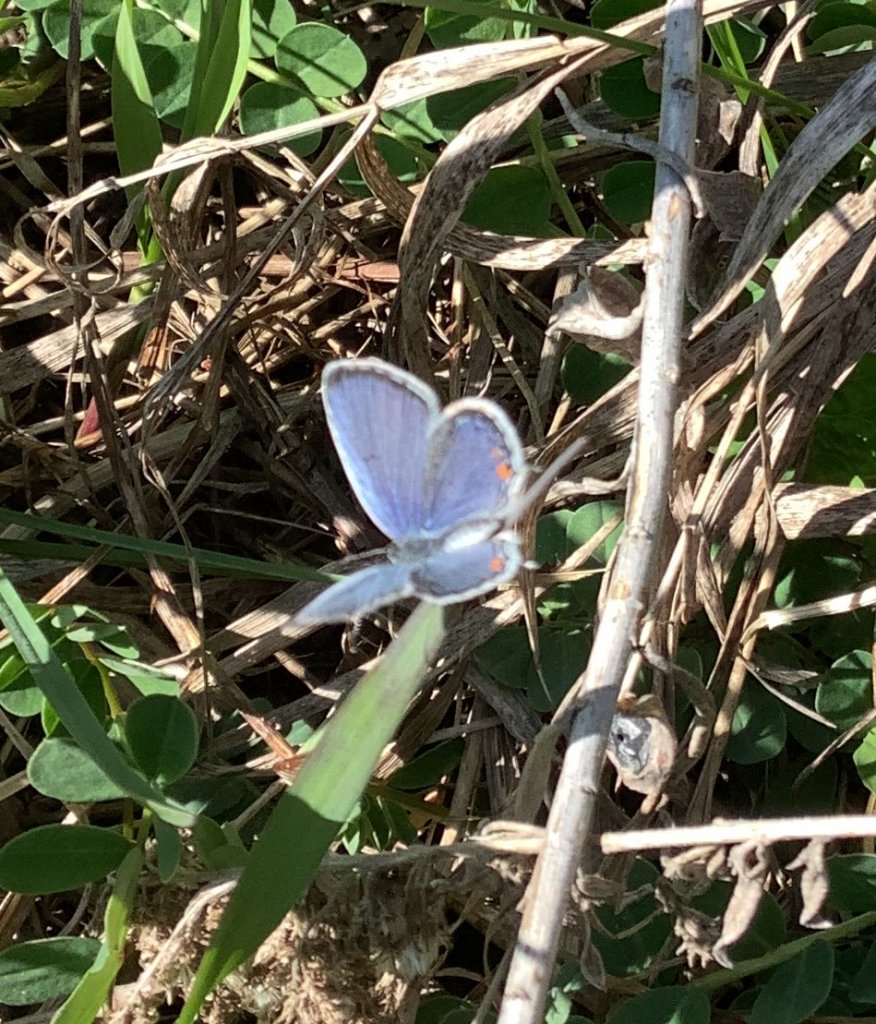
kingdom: Animalia
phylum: Arthropoda
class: Insecta
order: Lepidoptera
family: Lycaenidae
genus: Elkalyce
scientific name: Elkalyce comyntas
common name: Eastern Tailed-Blue
